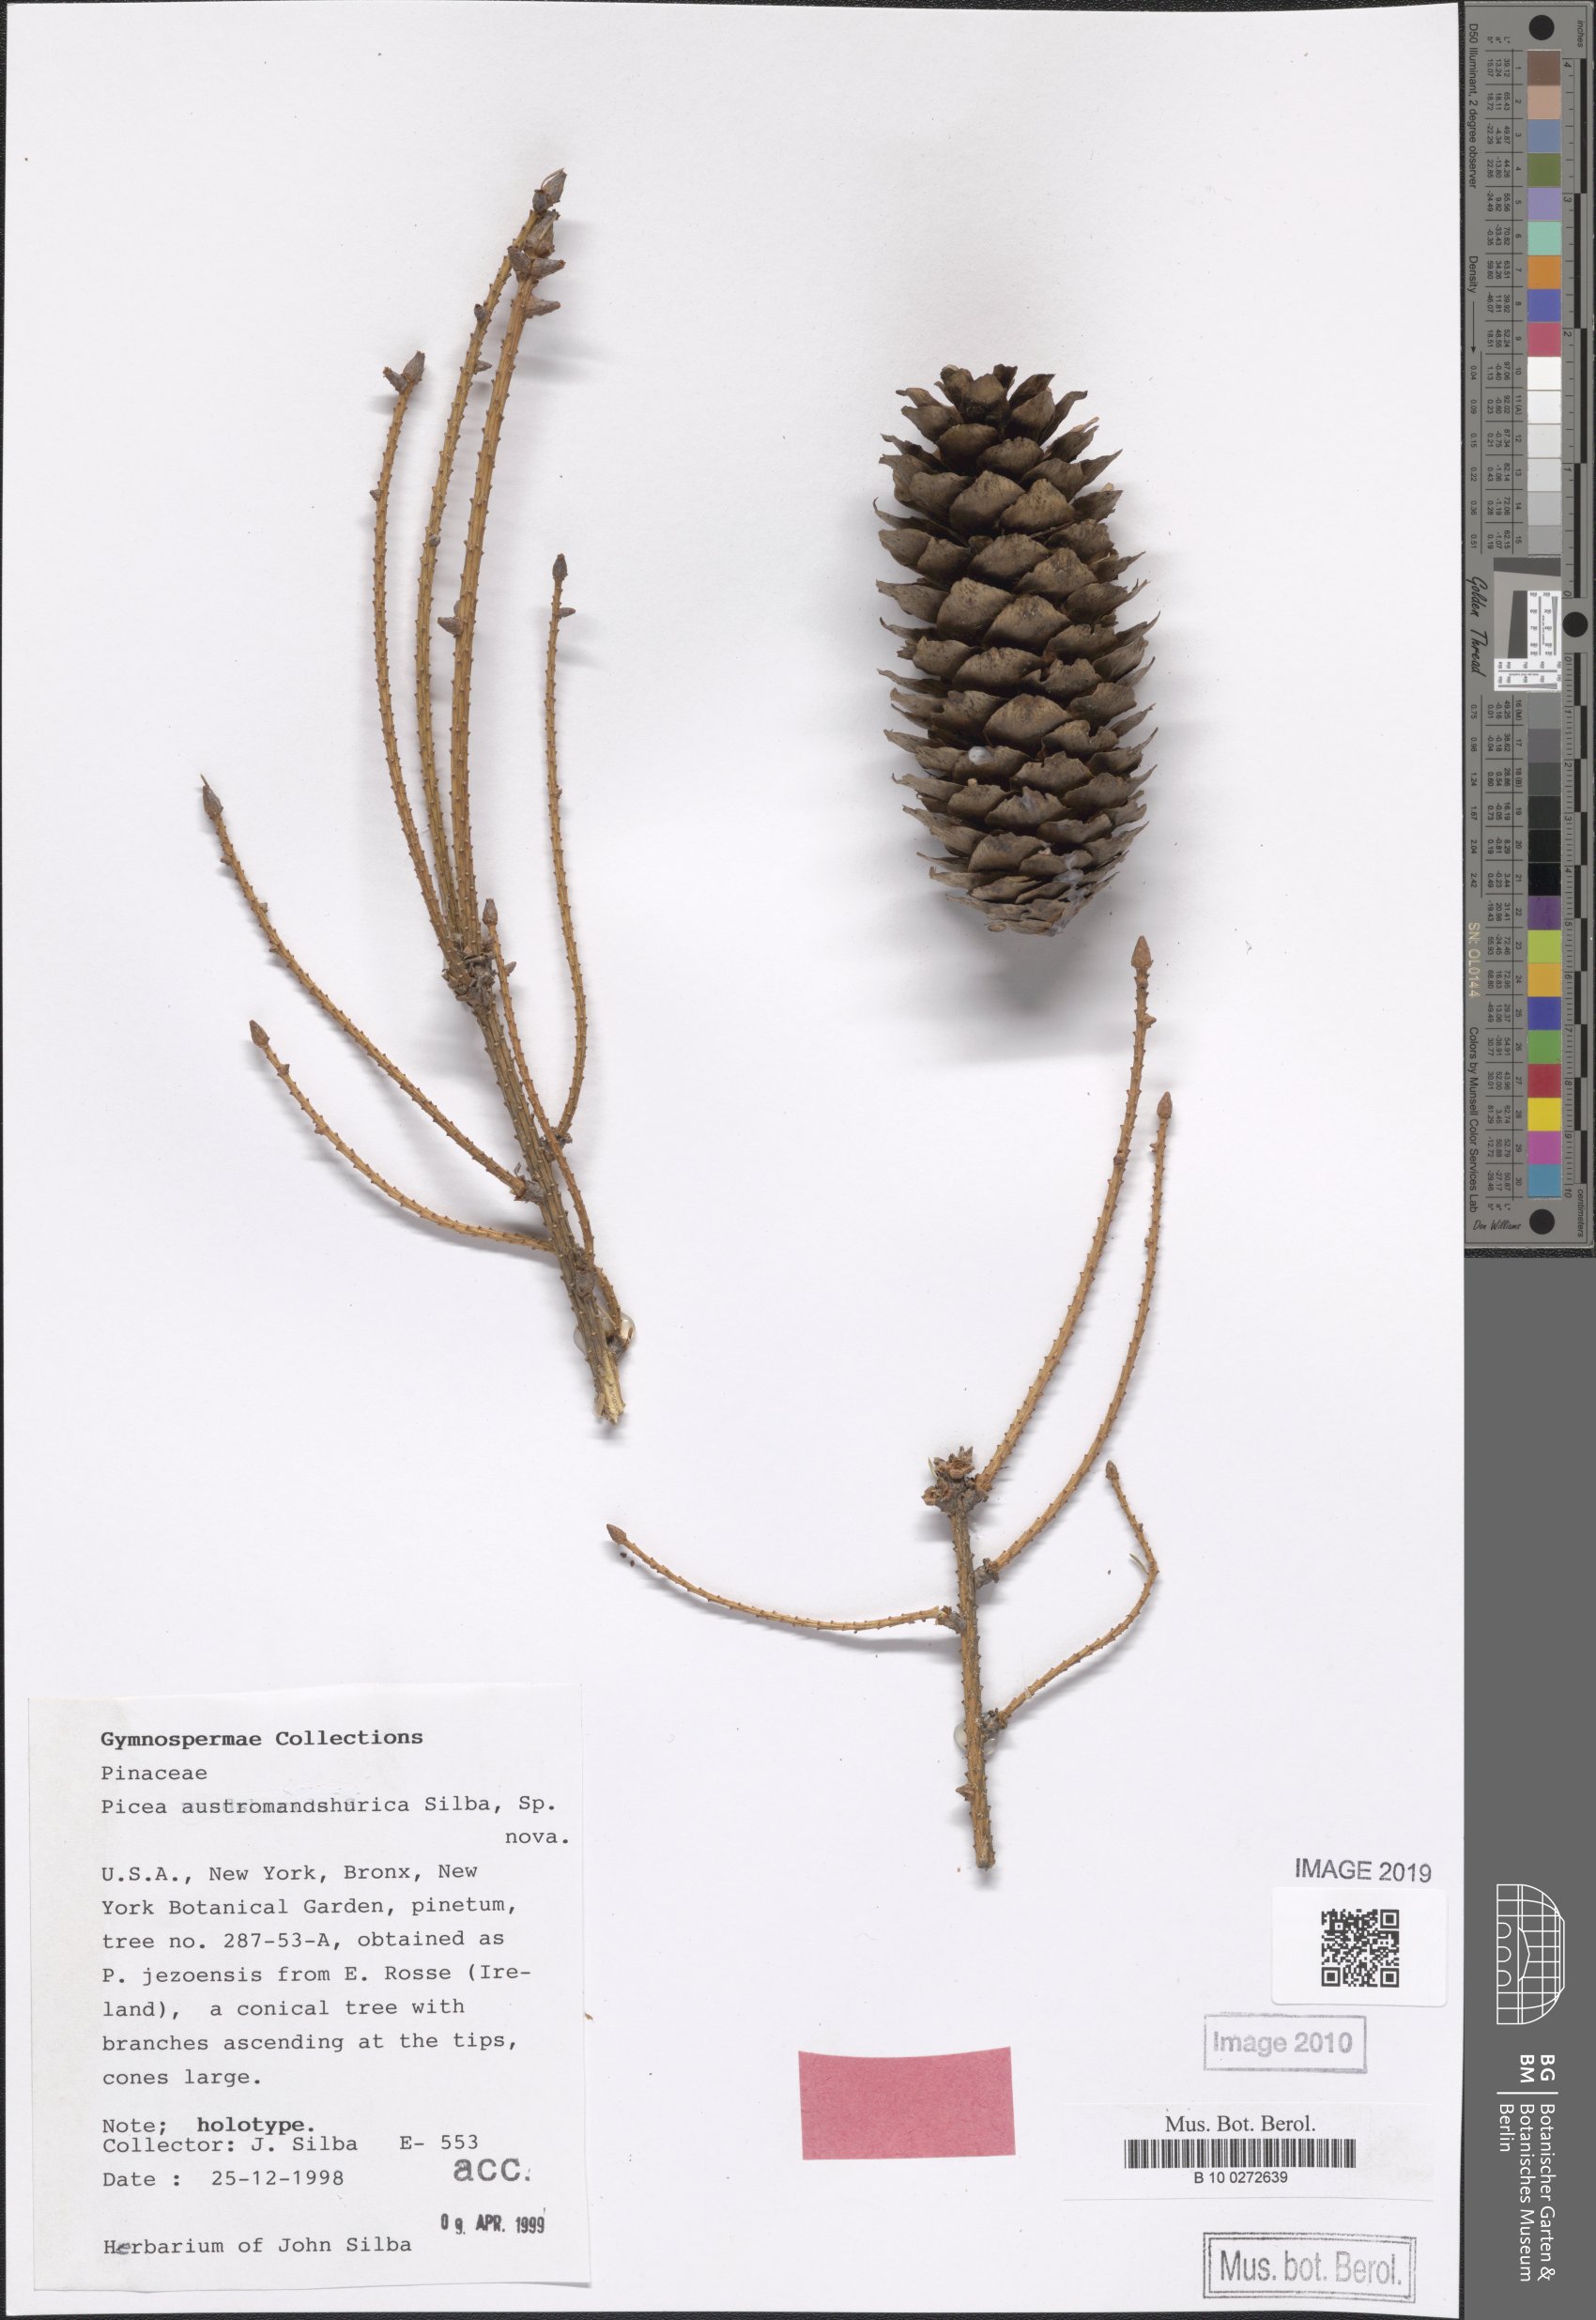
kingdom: Plantae
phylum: Tracheophyta
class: Pinopsida
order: Pinales
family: Pinaceae
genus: Picea
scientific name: Picea jezoensis
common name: Yeddo spruce
